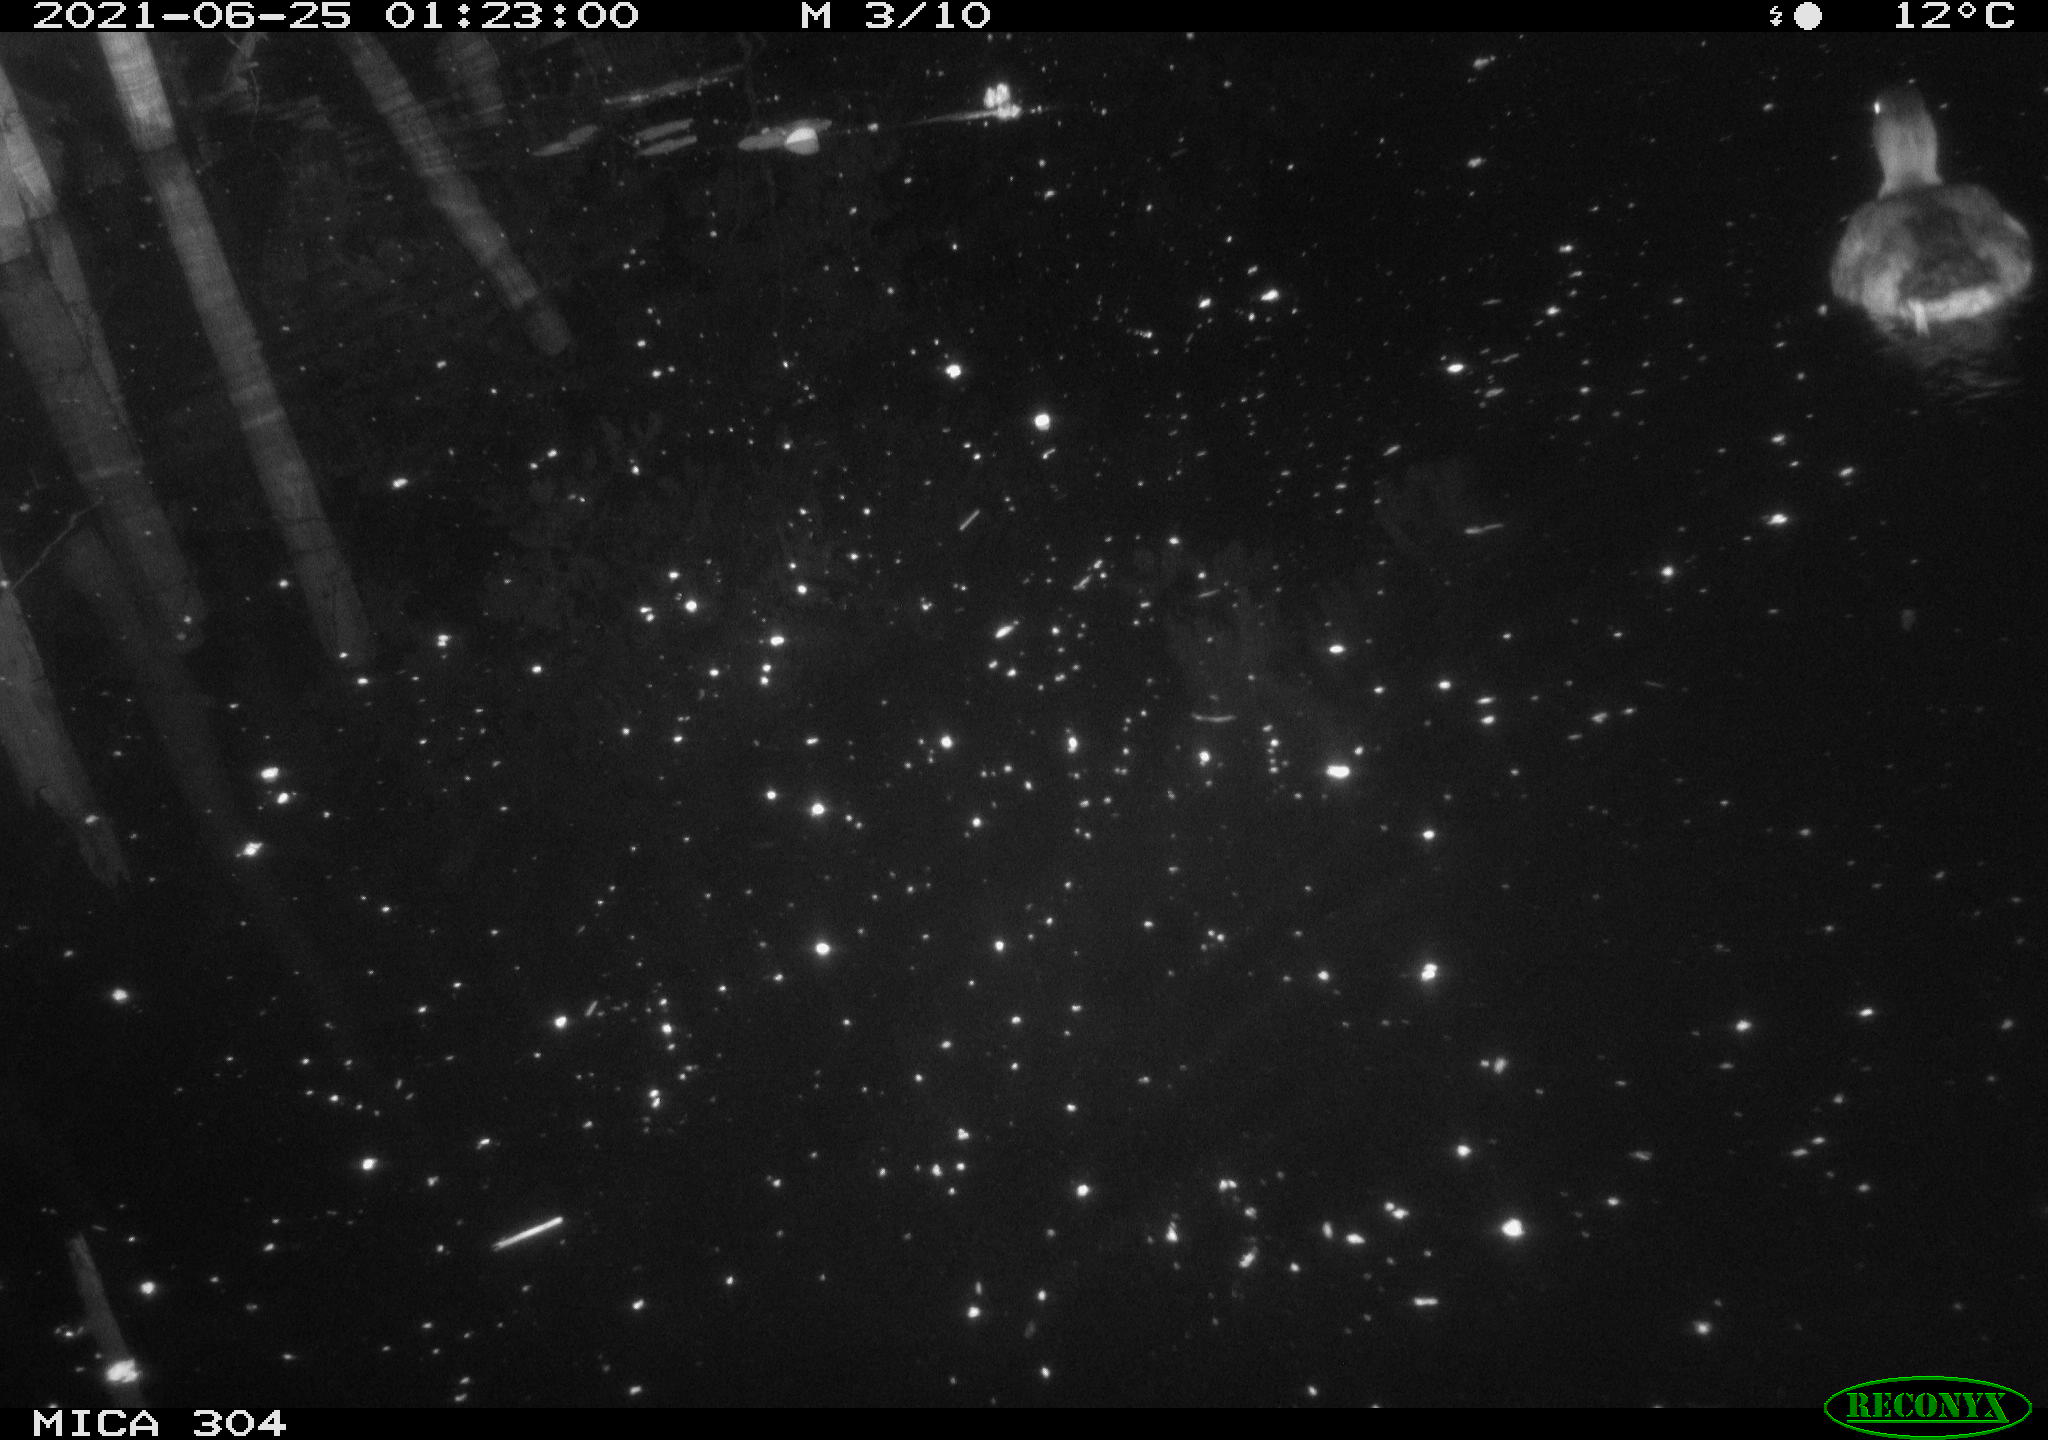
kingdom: Animalia
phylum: Chordata
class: Aves
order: Anseriformes
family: Anatidae
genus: Anas
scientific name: Anas platyrhynchos
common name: Mallard
